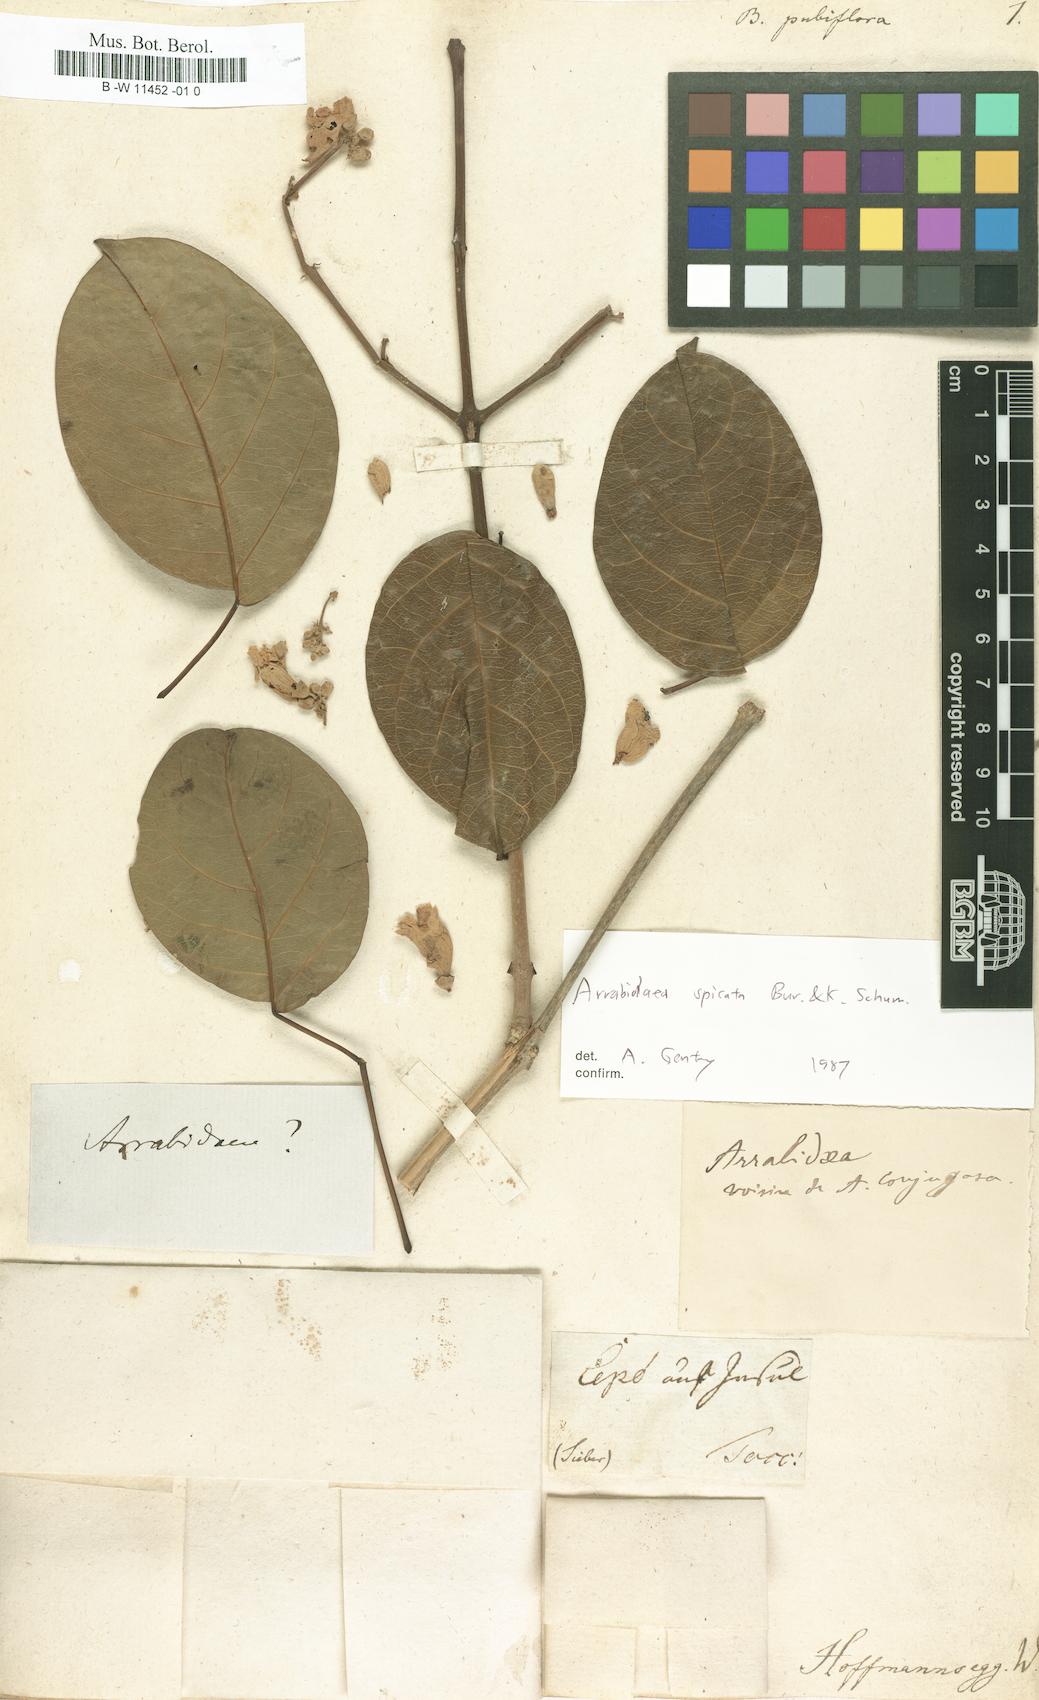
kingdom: Plantae
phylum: Tracheophyta
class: Magnoliopsida
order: Lamiales
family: Bignoniaceae
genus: Bignonia
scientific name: Bignonia
